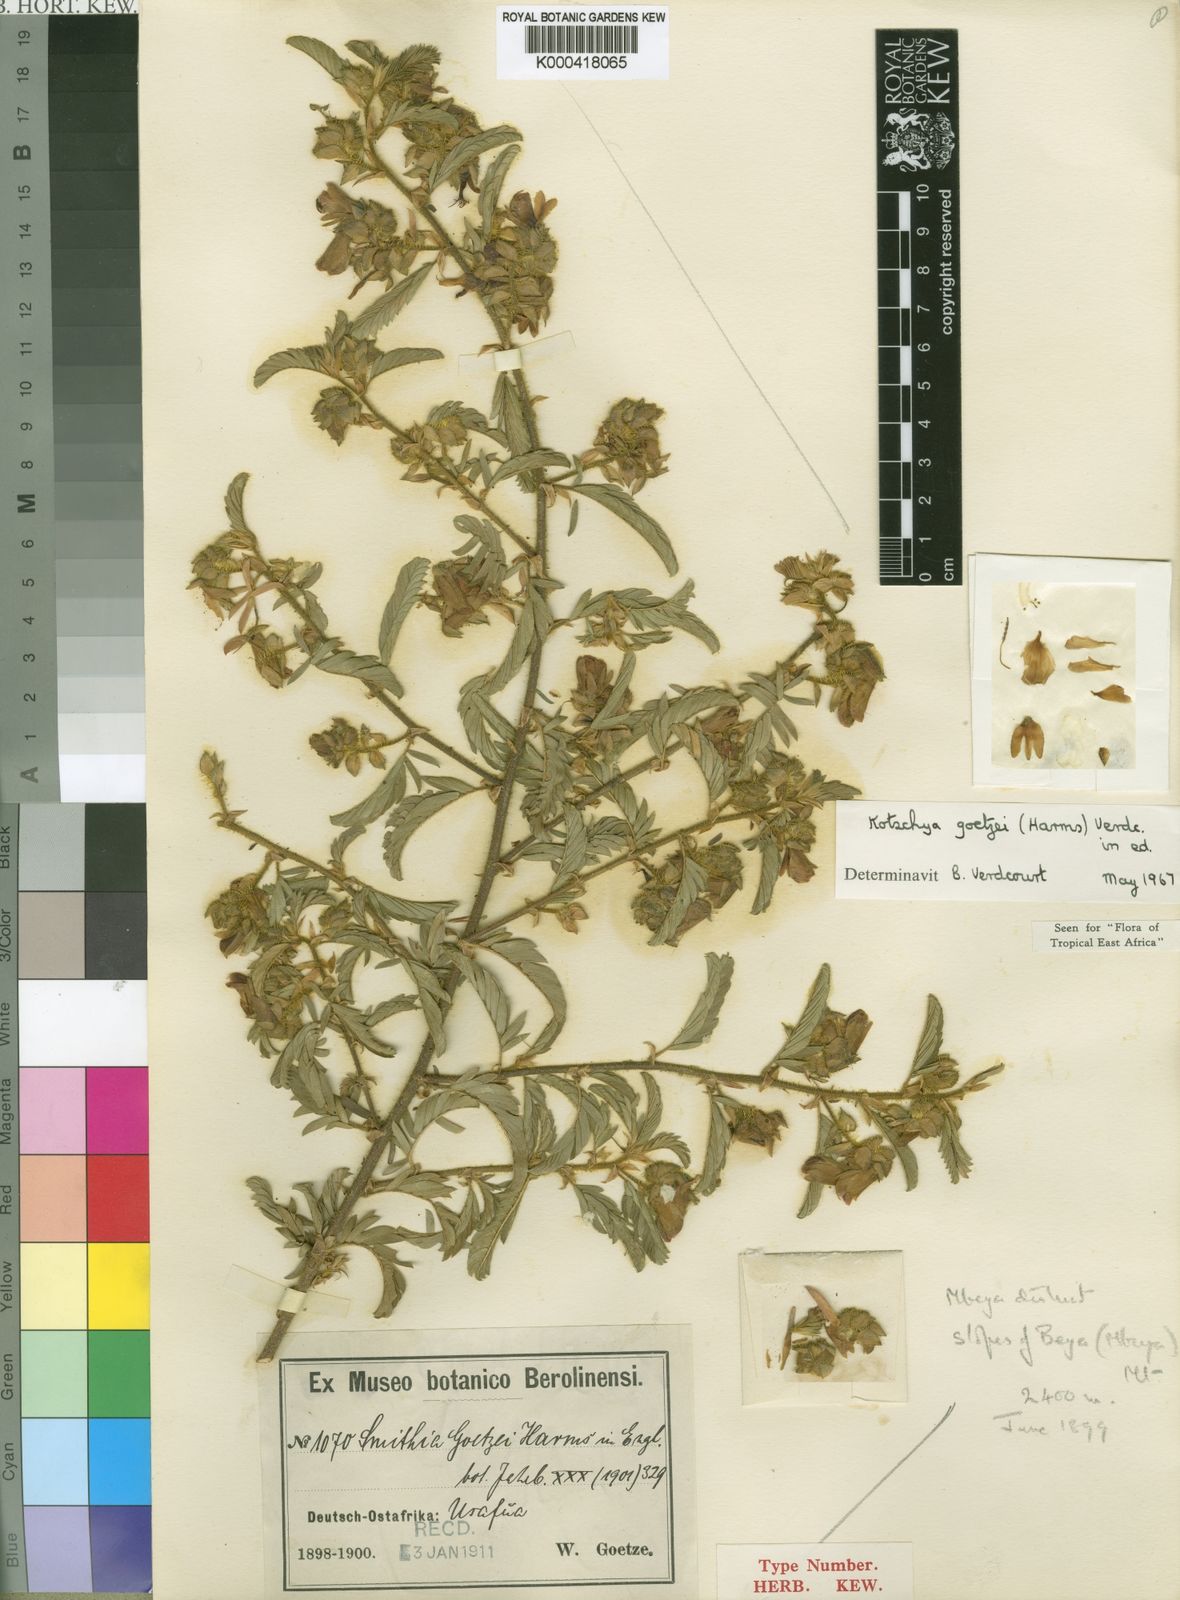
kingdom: Plantae
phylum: Tracheophyta
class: Magnoliopsida
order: Fabales
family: Fabaceae
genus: Kotschya
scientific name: Kotschya goetzei
